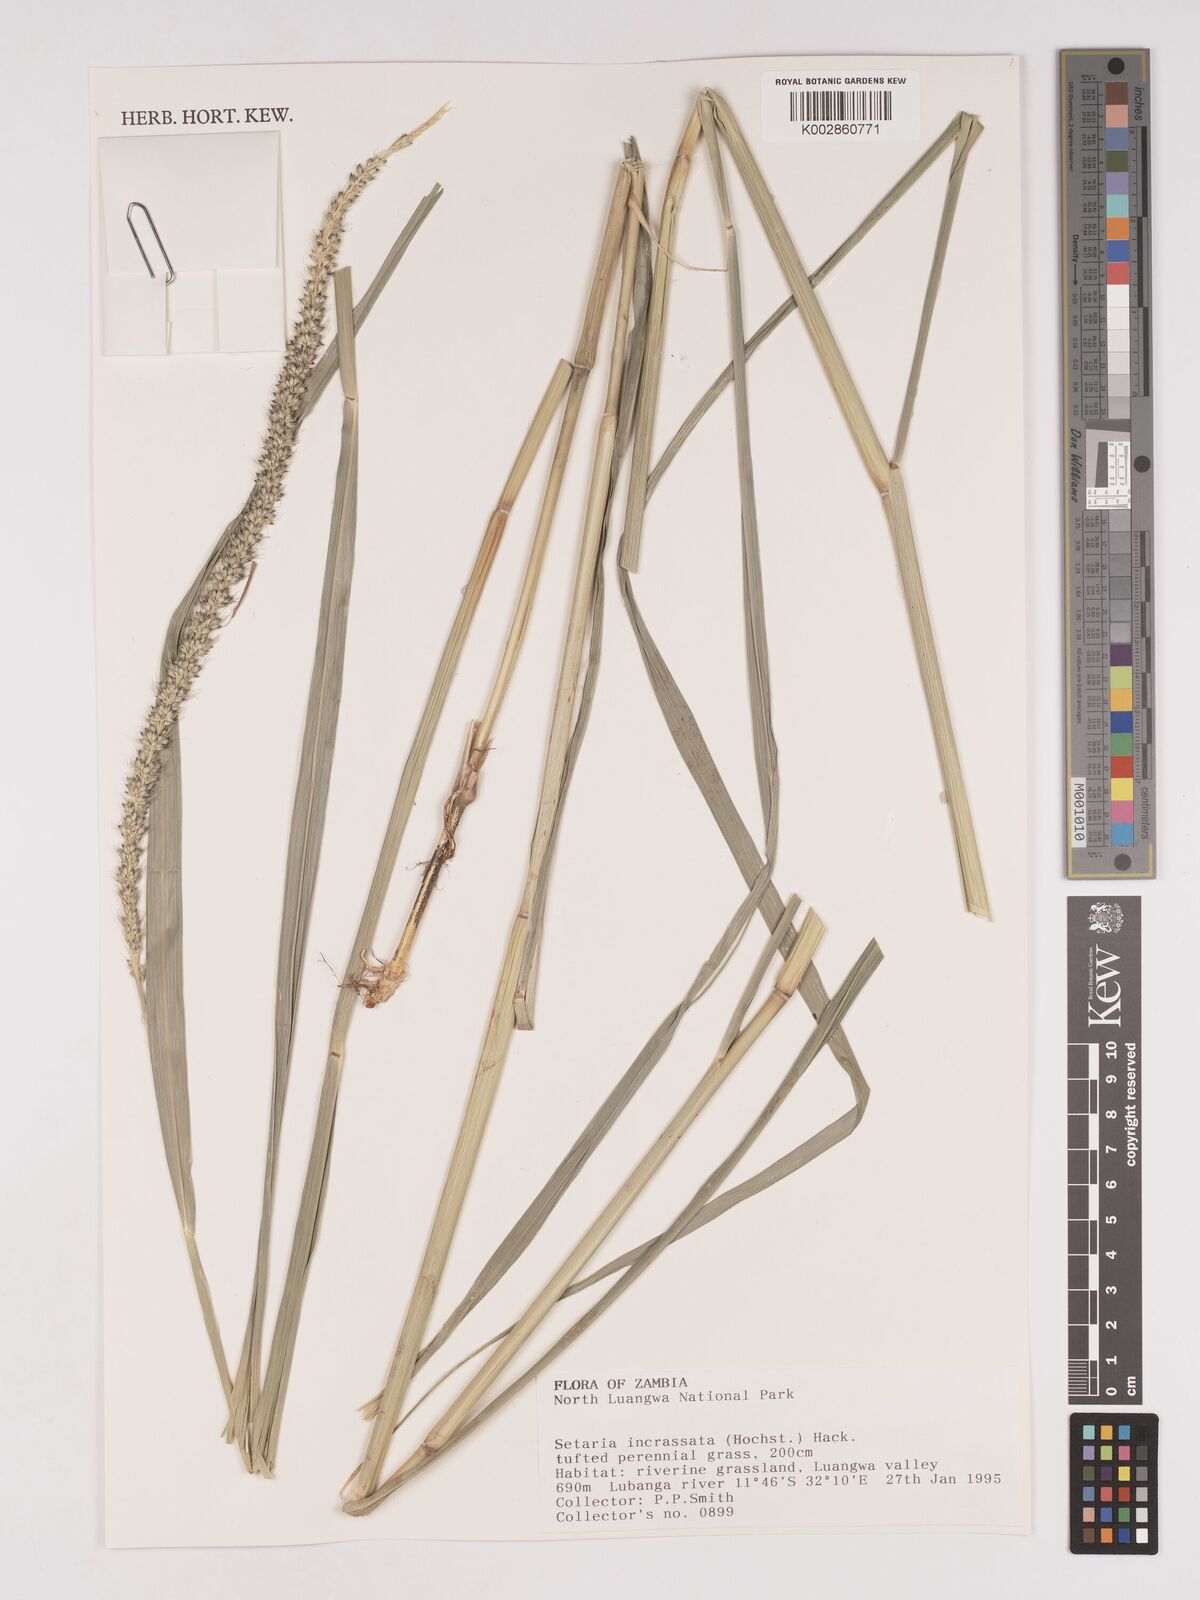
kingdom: Plantae
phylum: Tracheophyta
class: Liliopsida
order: Poales
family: Poaceae
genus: Setaria
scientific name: Setaria incrassata
